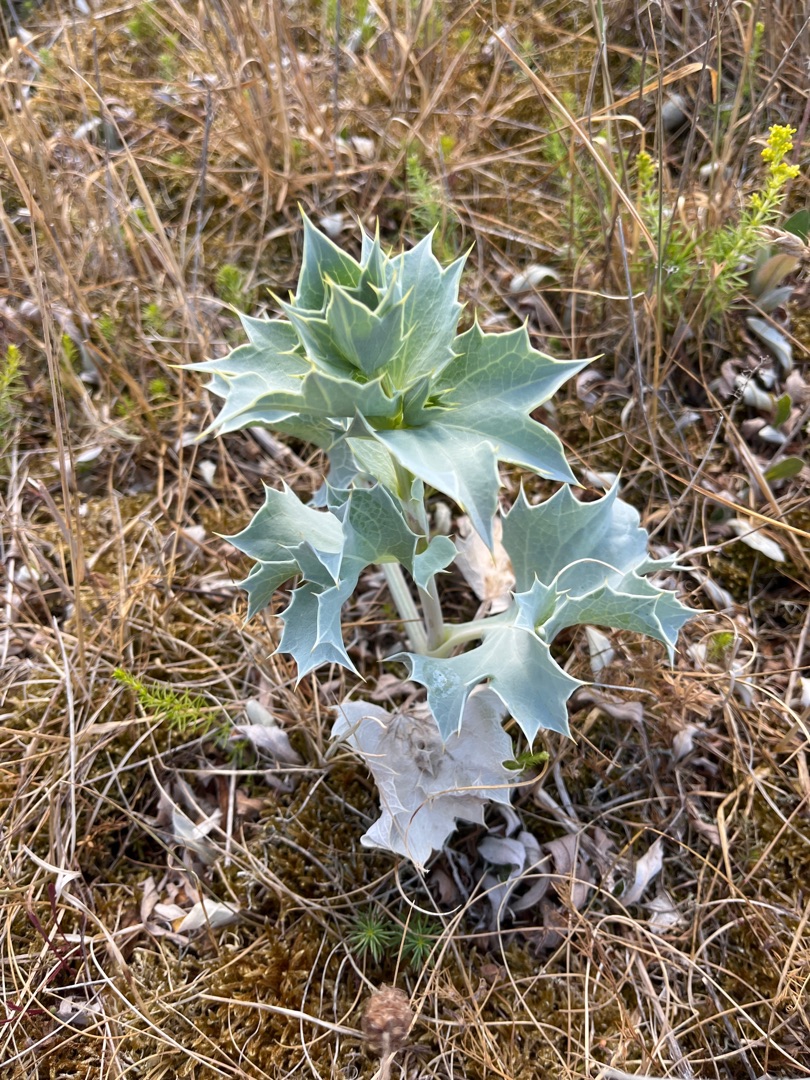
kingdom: Plantae
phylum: Tracheophyta
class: Magnoliopsida
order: Apiales
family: Apiaceae
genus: Eryngium
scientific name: Eryngium maritimum
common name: Strand-mandstro
